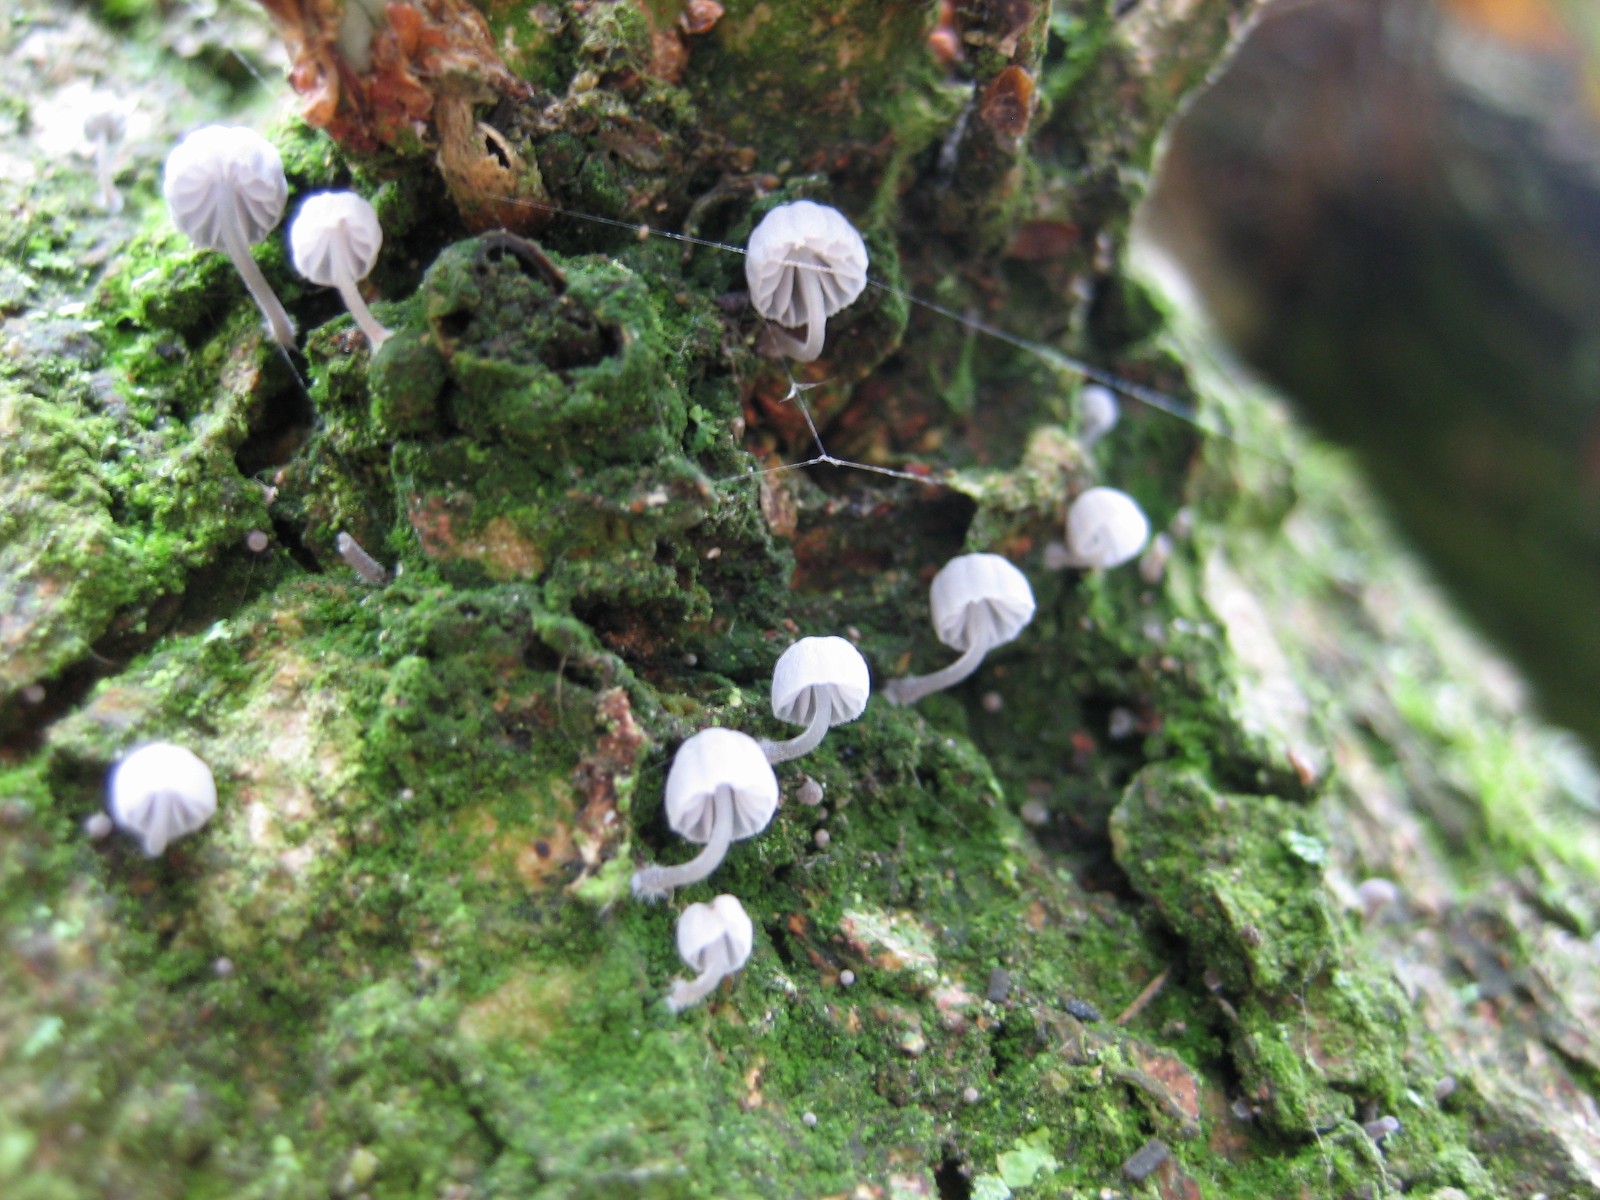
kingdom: Fungi
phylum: Basidiomycota
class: Agaricomycetes
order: Agaricales
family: Mycenaceae
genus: Mycena
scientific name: Mycena pseudocorticola
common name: gråblå bark-huesvamp
